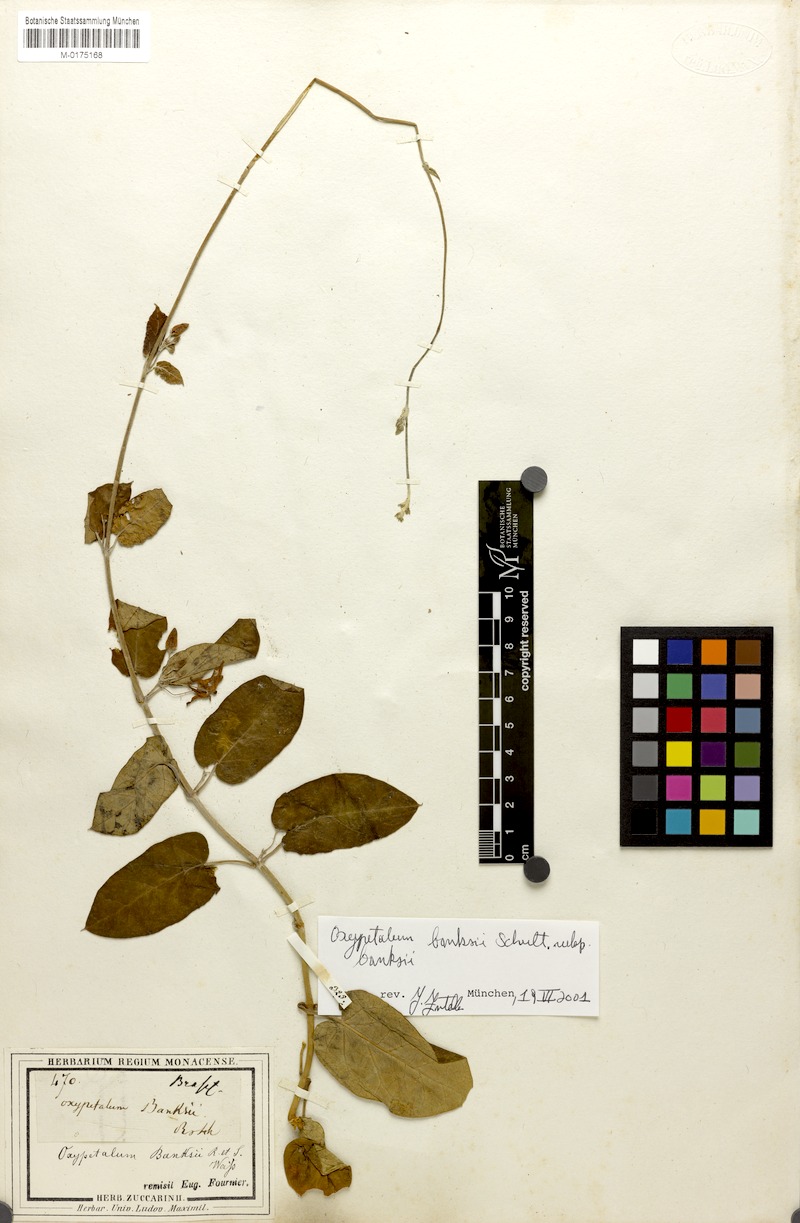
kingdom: Plantae
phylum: Tracheophyta
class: Magnoliopsida
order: Gentianales
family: Apocynaceae
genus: Oxypetalum
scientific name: Oxypetalum banksii
